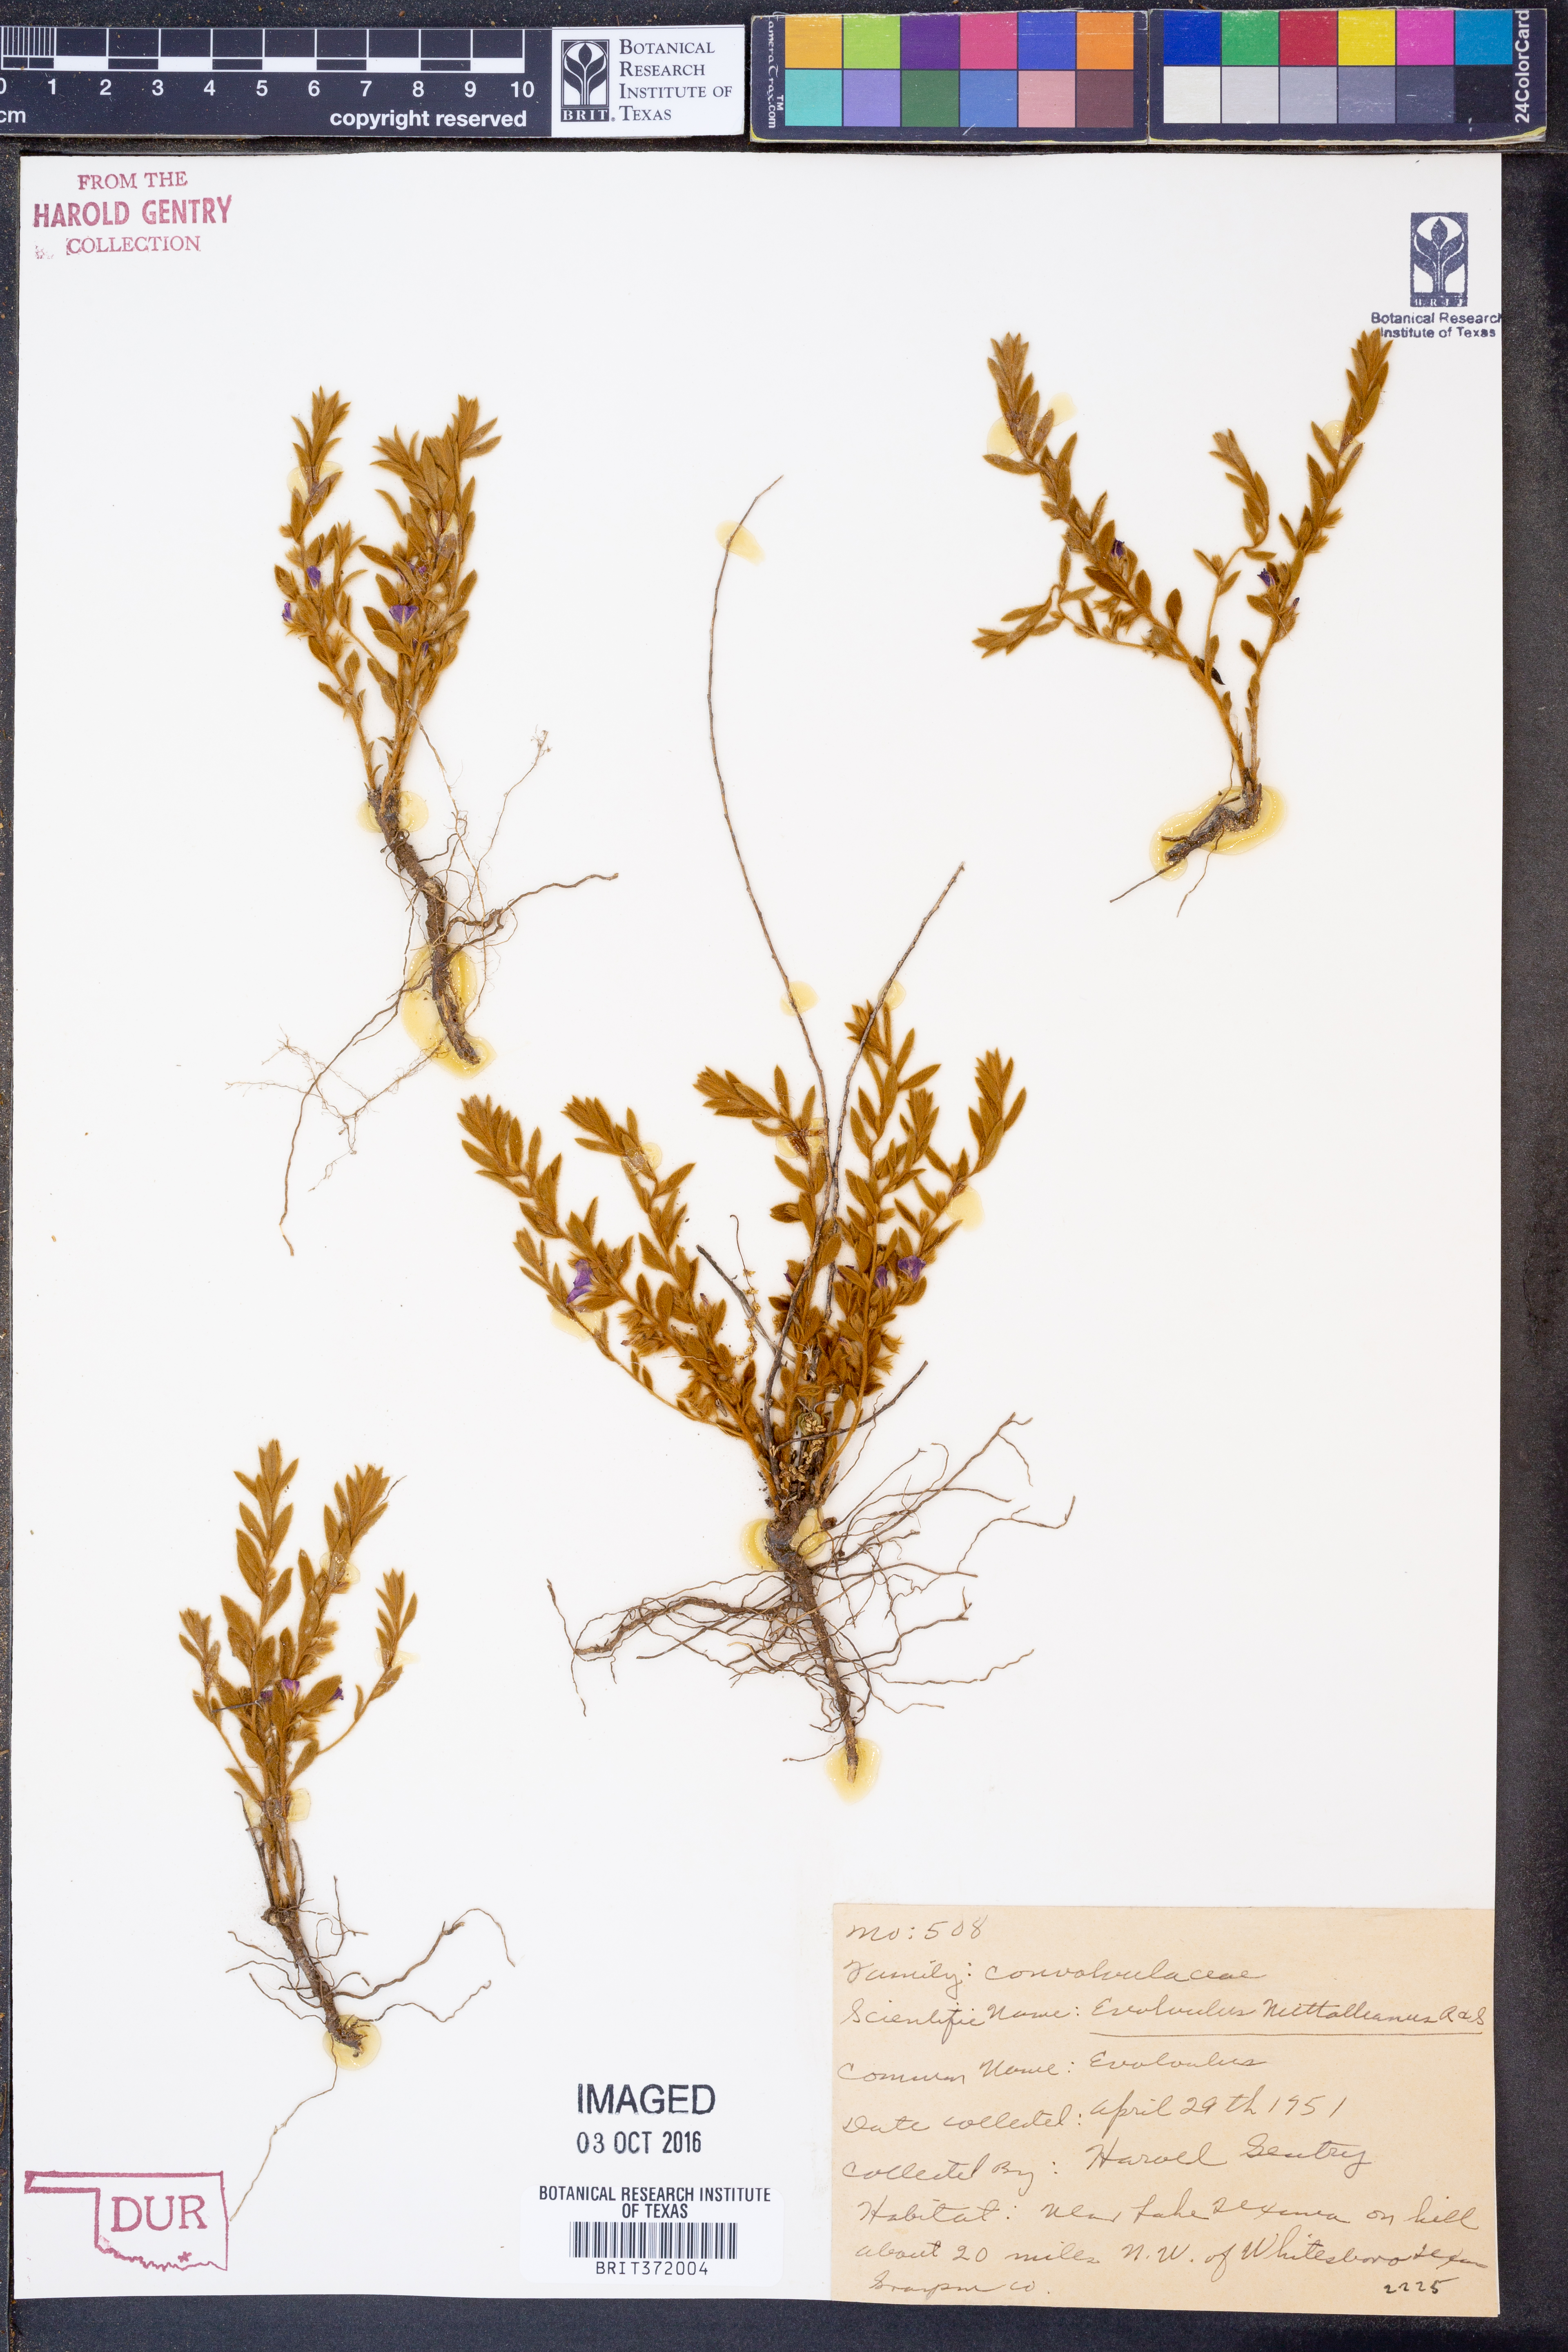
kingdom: Plantae
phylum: Tracheophyta
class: Magnoliopsida
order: Solanales
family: Convolvulaceae
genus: Evolvulus
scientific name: Evolvulus nuttallianus
